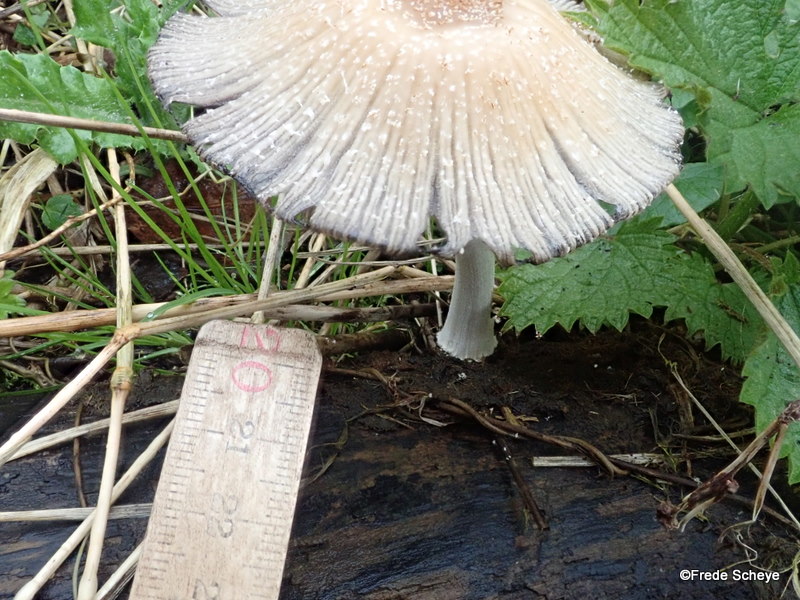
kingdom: Fungi
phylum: Basidiomycota
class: Agaricomycetes
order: Agaricales
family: Psathyrellaceae
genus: Coprinellus
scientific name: Coprinellus domesticus
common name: hus-blækhat
